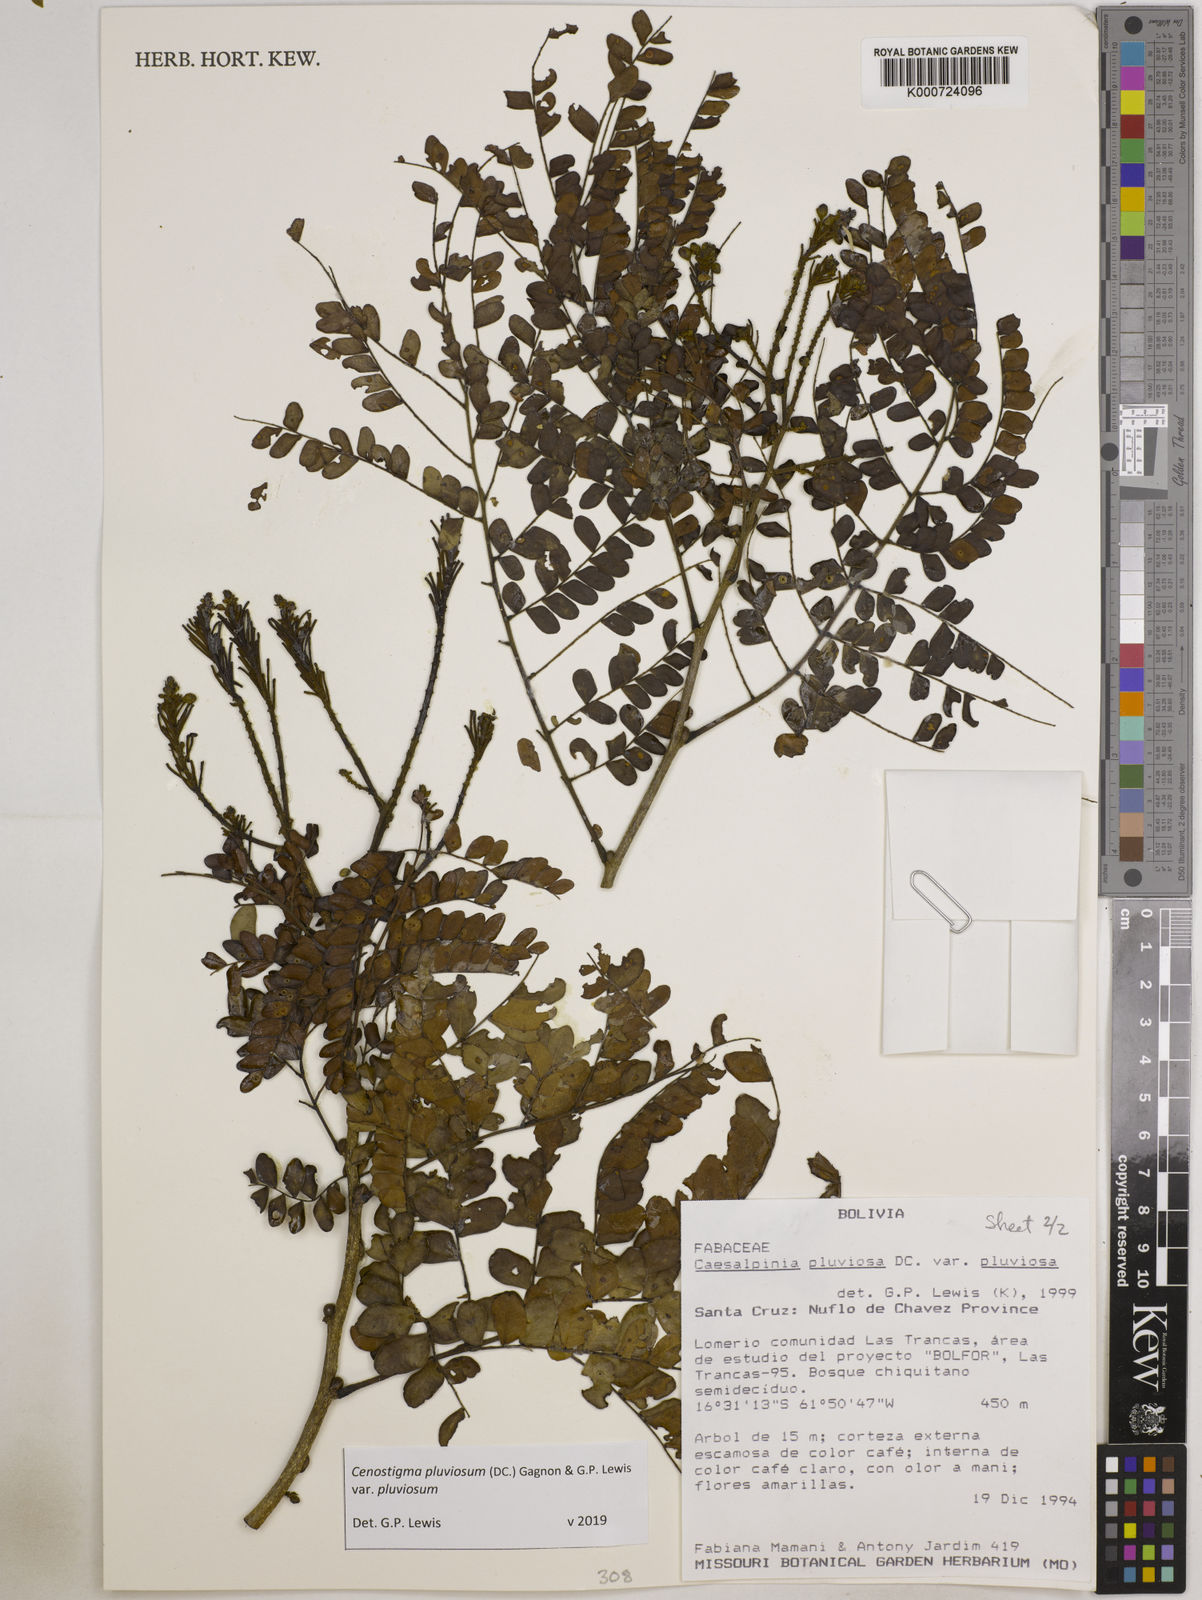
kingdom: Plantae
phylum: Tracheophyta
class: Magnoliopsida
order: Fabales
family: Fabaceae
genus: Cenostigma
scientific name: Cenostigma pluviosum
